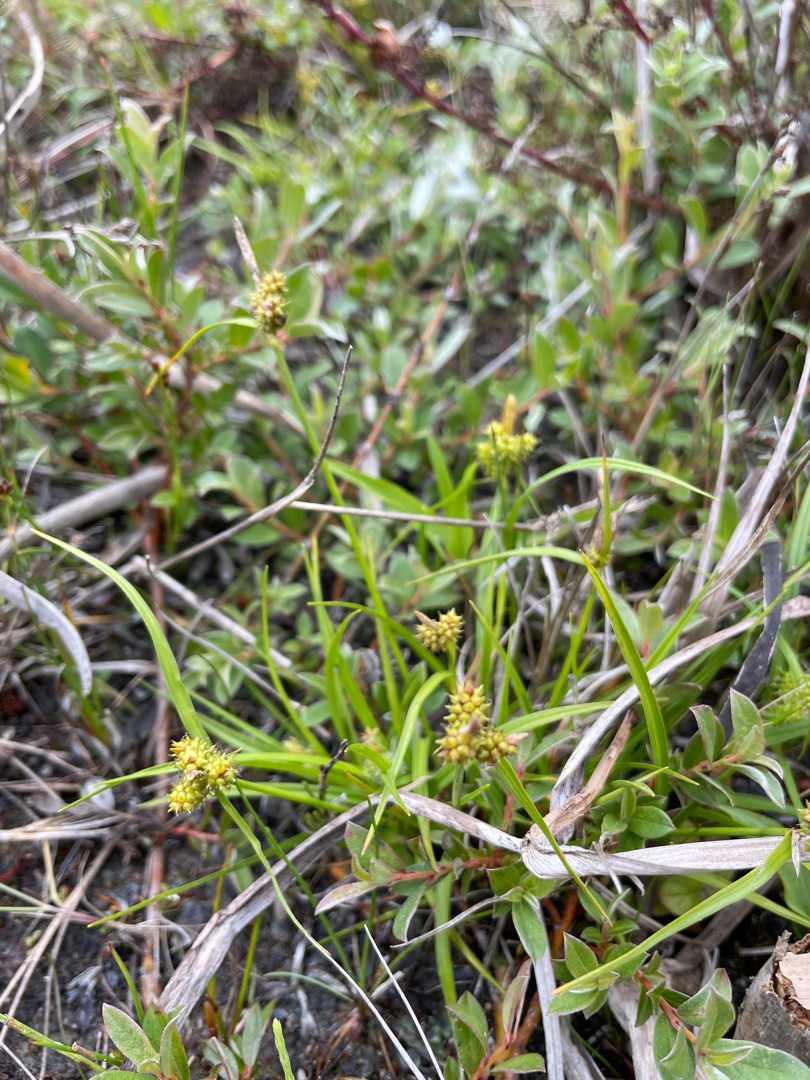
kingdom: Plantae
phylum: Tracheophyta
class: Liliopsida
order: Poales
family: Cyperaceae
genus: Carex
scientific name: Carex oederi
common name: Dværg-star
